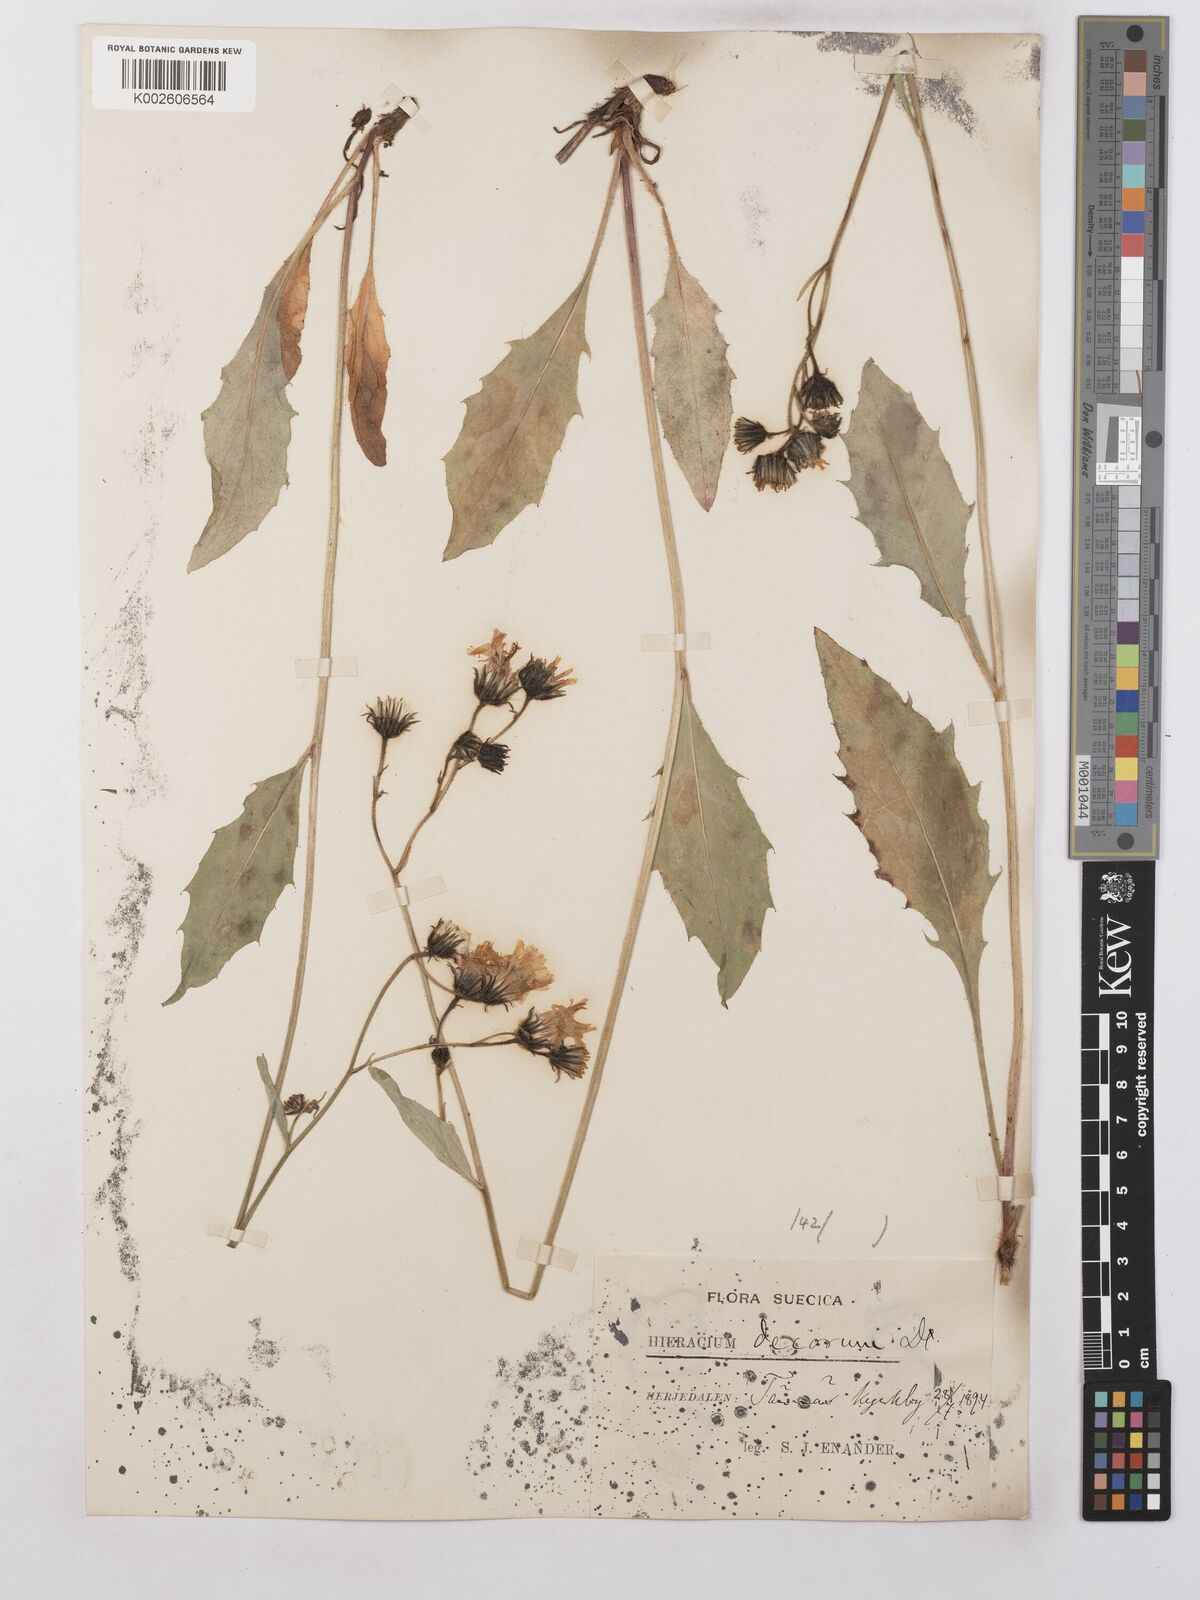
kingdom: Plantae
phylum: Tracheophyta
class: Magnoliopsida
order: Asterales
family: Asteraceae
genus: Hieracium
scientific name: Hieracium lachenalii
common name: Common hawkweed
